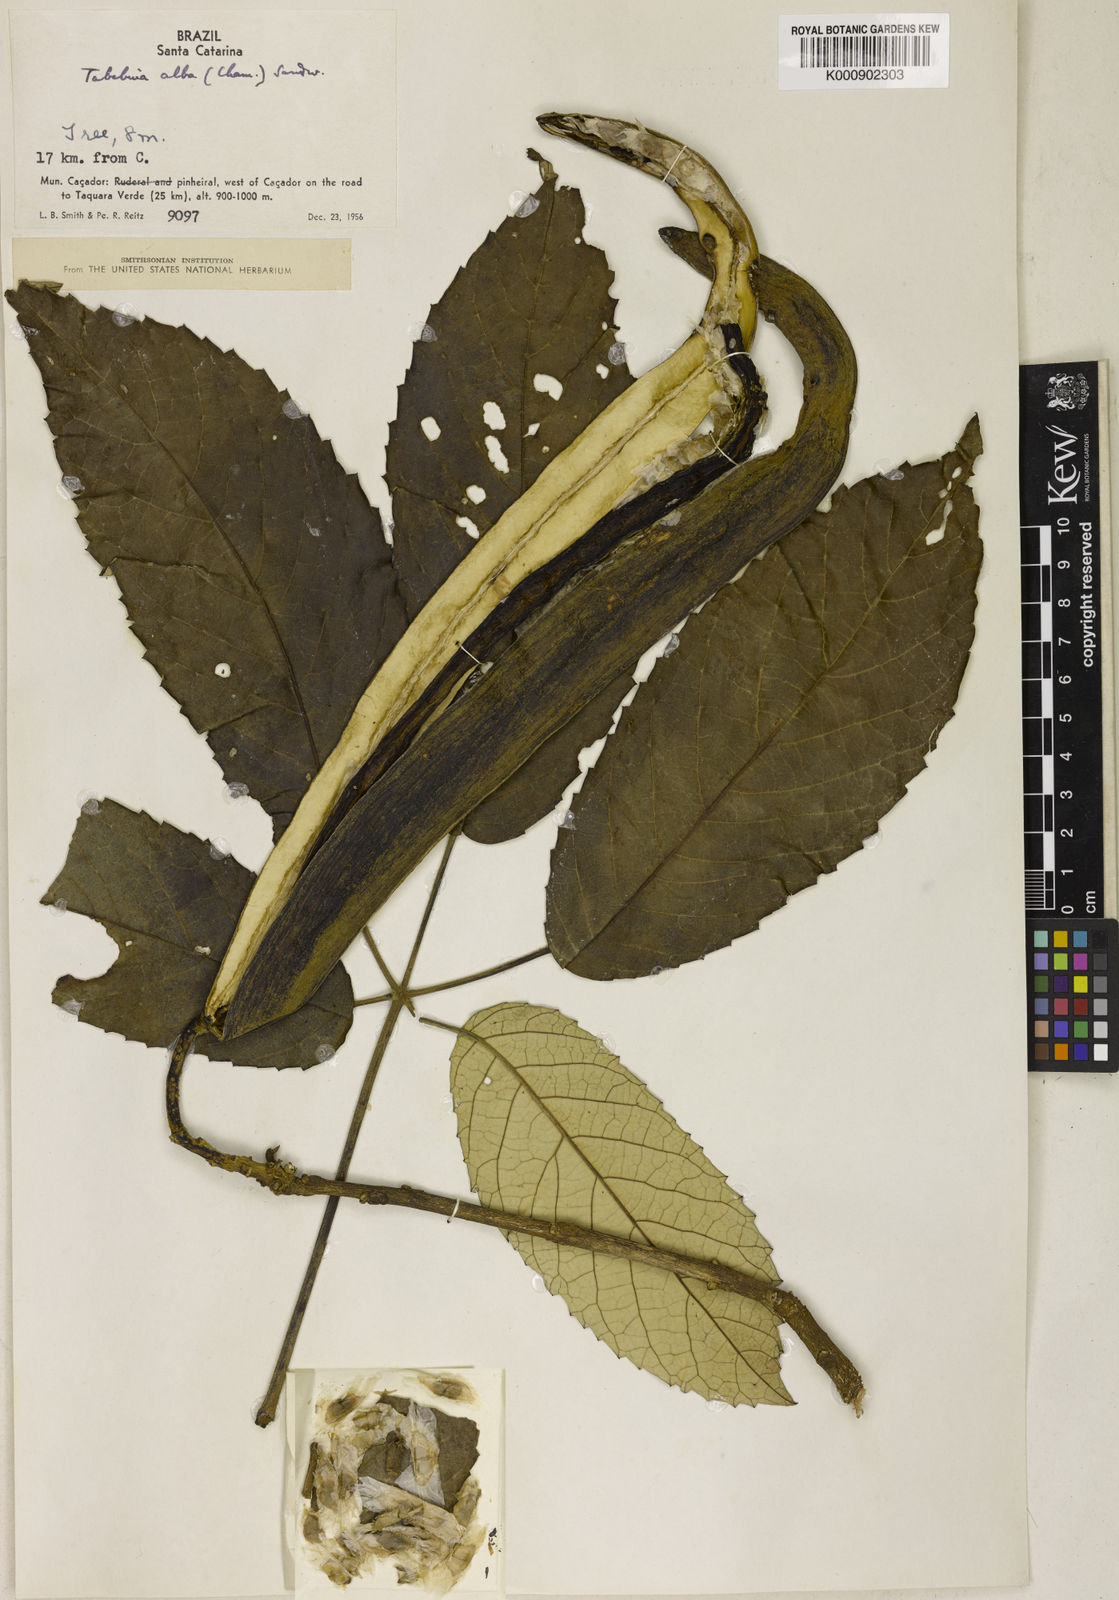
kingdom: Plantae
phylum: Tracheophyta
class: Magnoliopsida
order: Lamiales
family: Bignoniaceae
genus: Handroanthus
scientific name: Handroanthus albus
